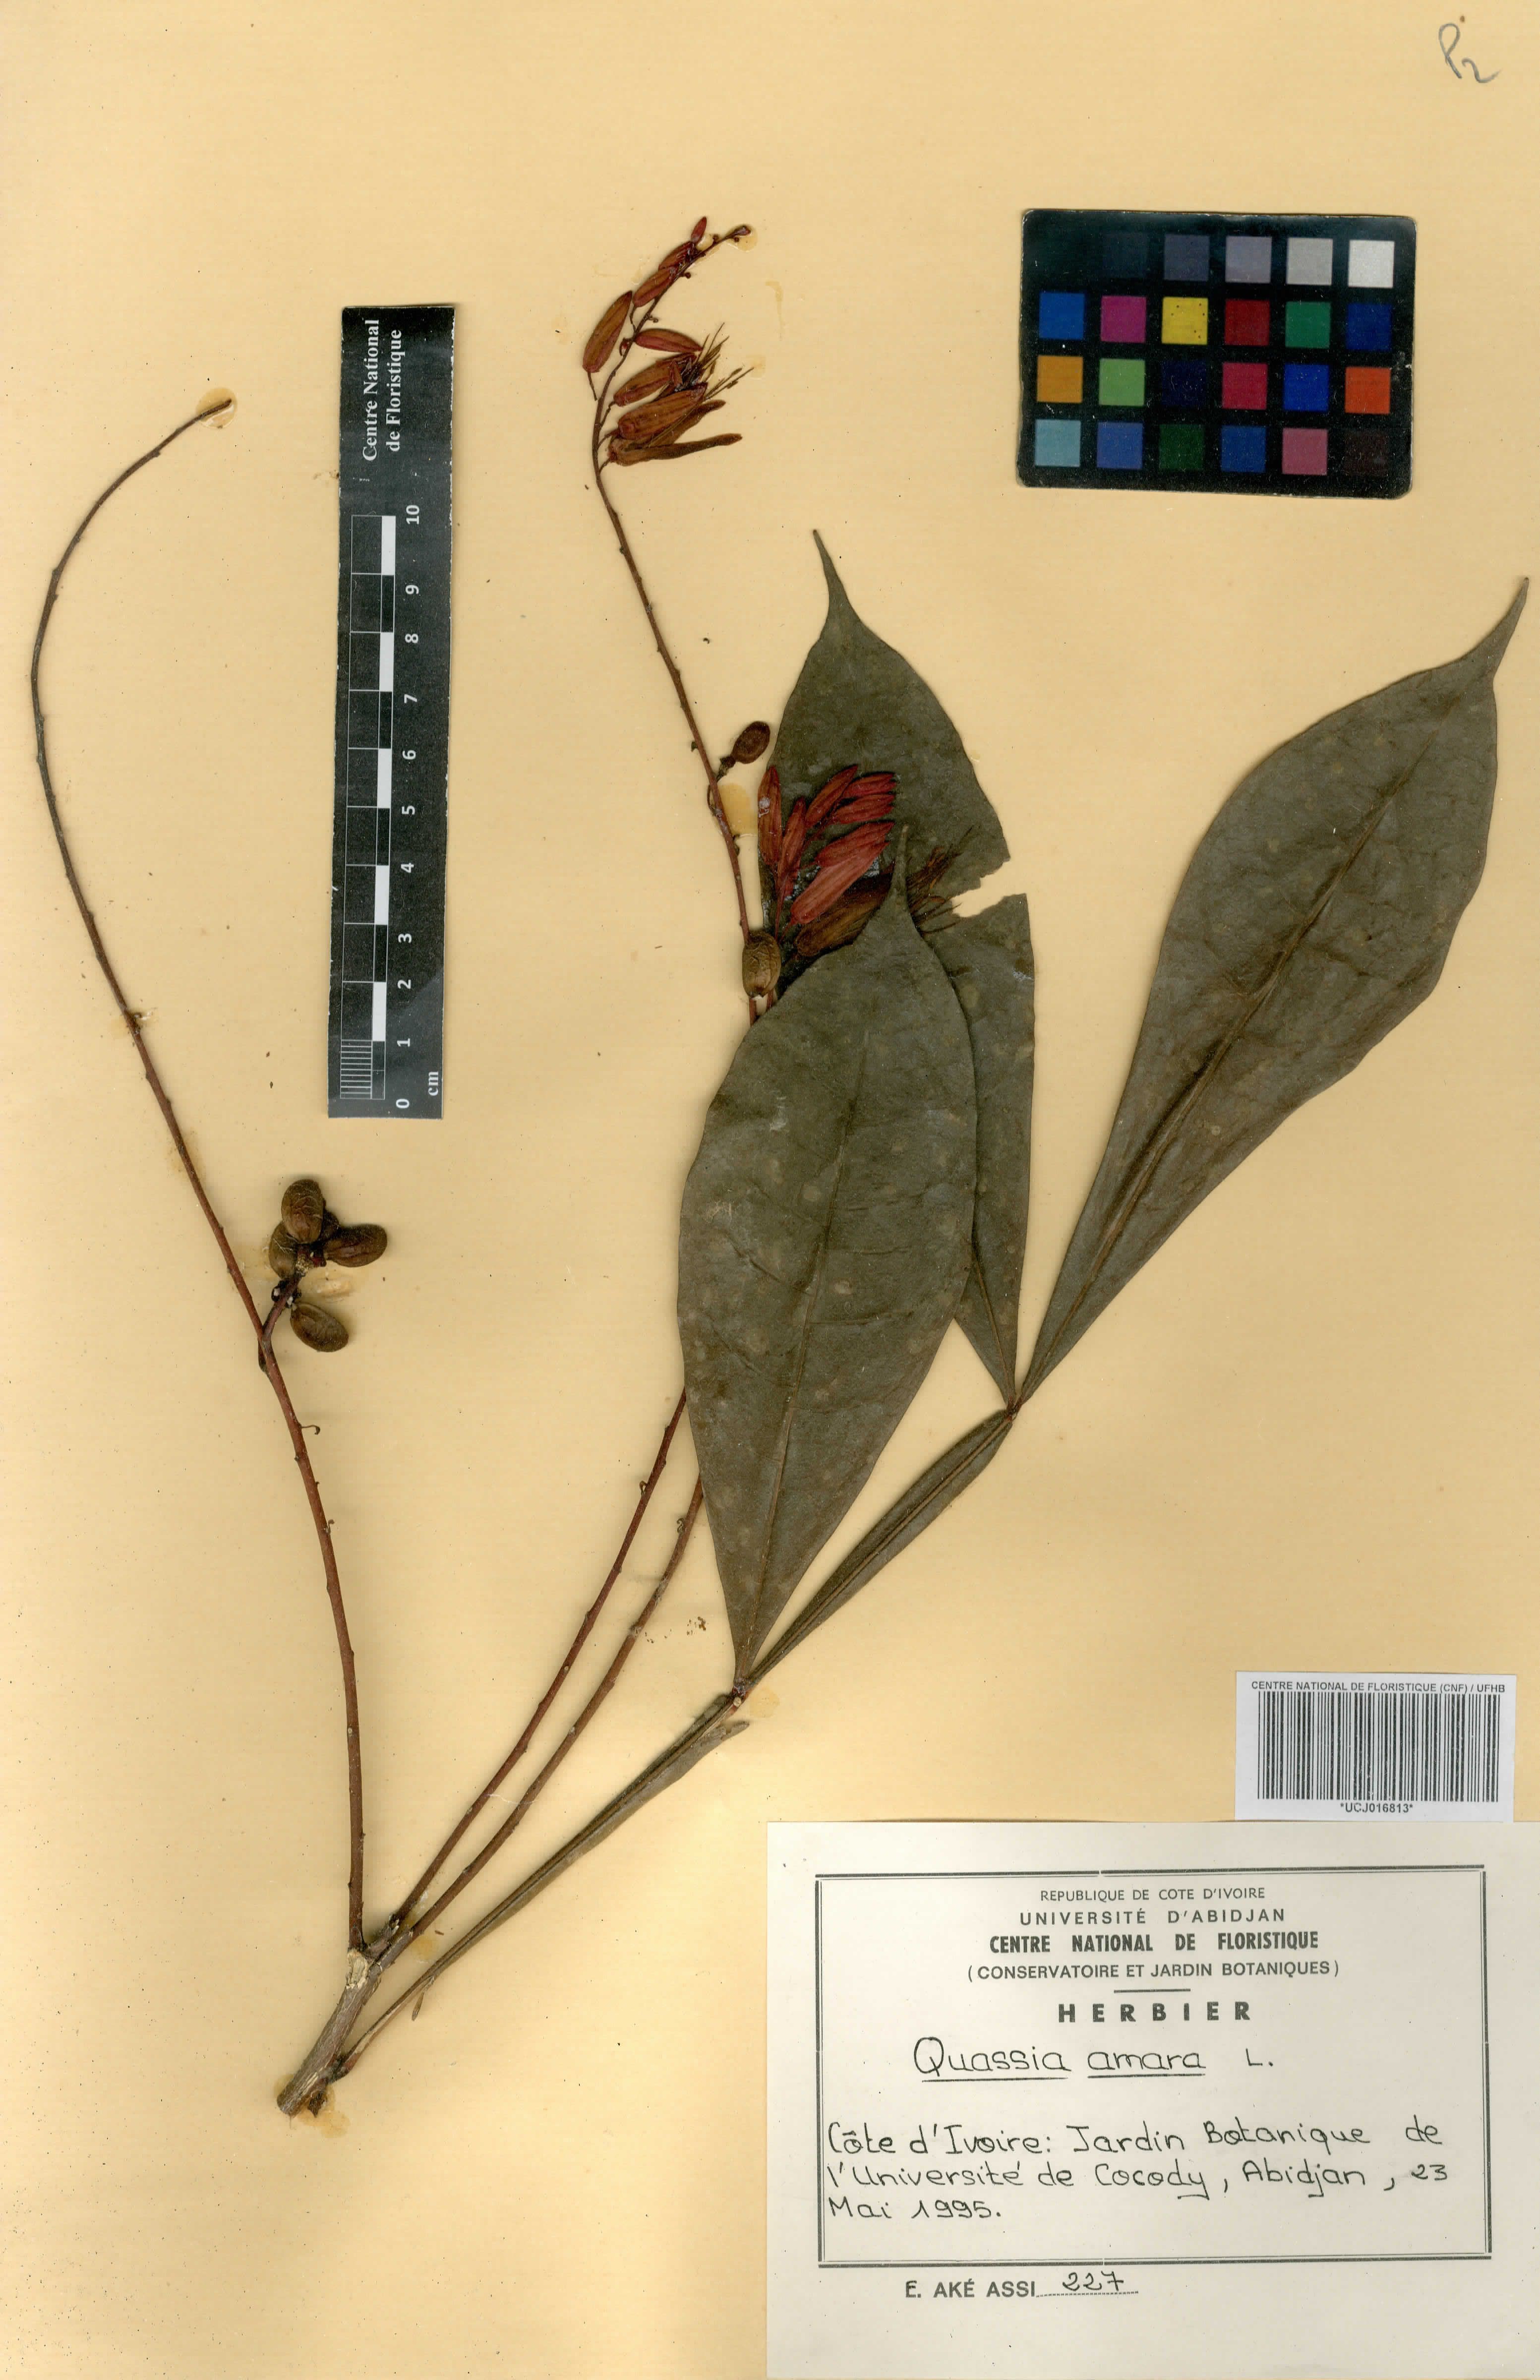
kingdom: Plantae
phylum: Tracheophyta
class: Magnoliopsida
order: Sapindales
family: Simaroubaceae
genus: Quassia
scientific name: Quassia amara
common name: Quassia
